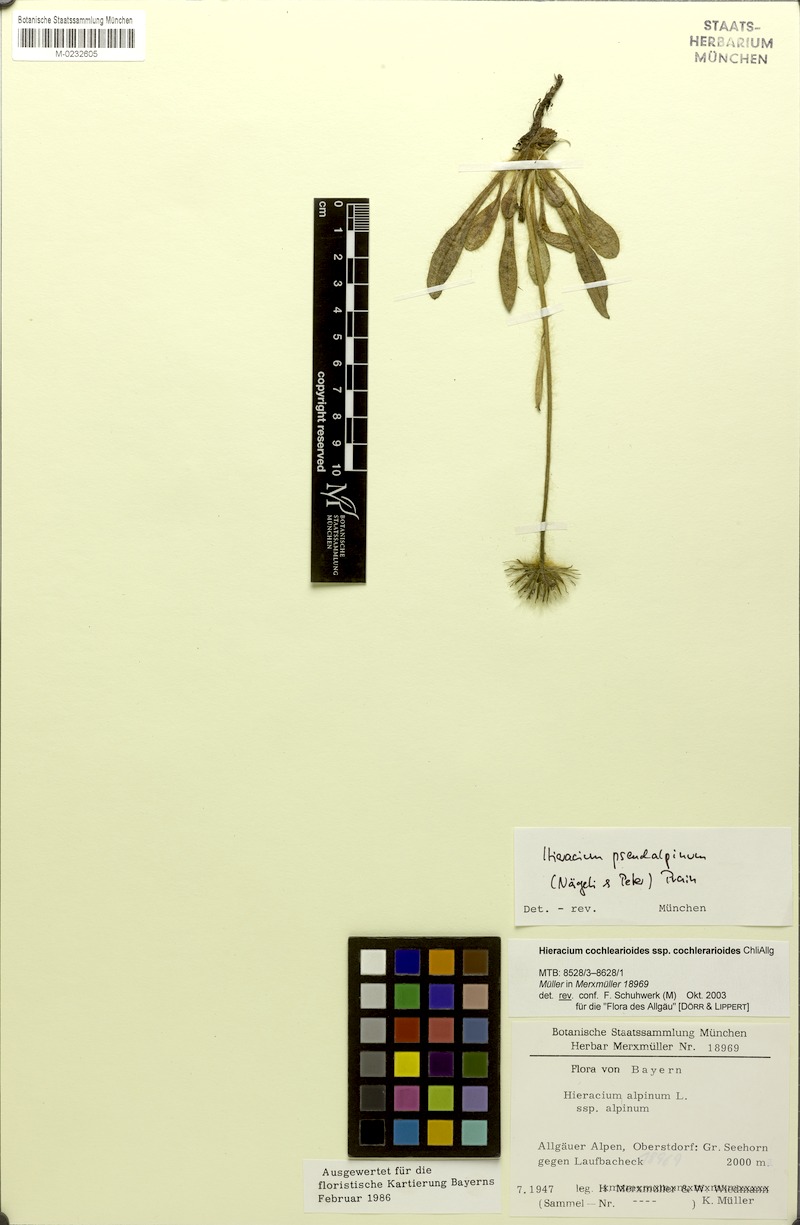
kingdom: Plantae
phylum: Tracheophyta
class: Magnoliopsida
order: Asterales
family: Asteraceae
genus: Hieracium
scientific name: Hieracium pseudalpinum
